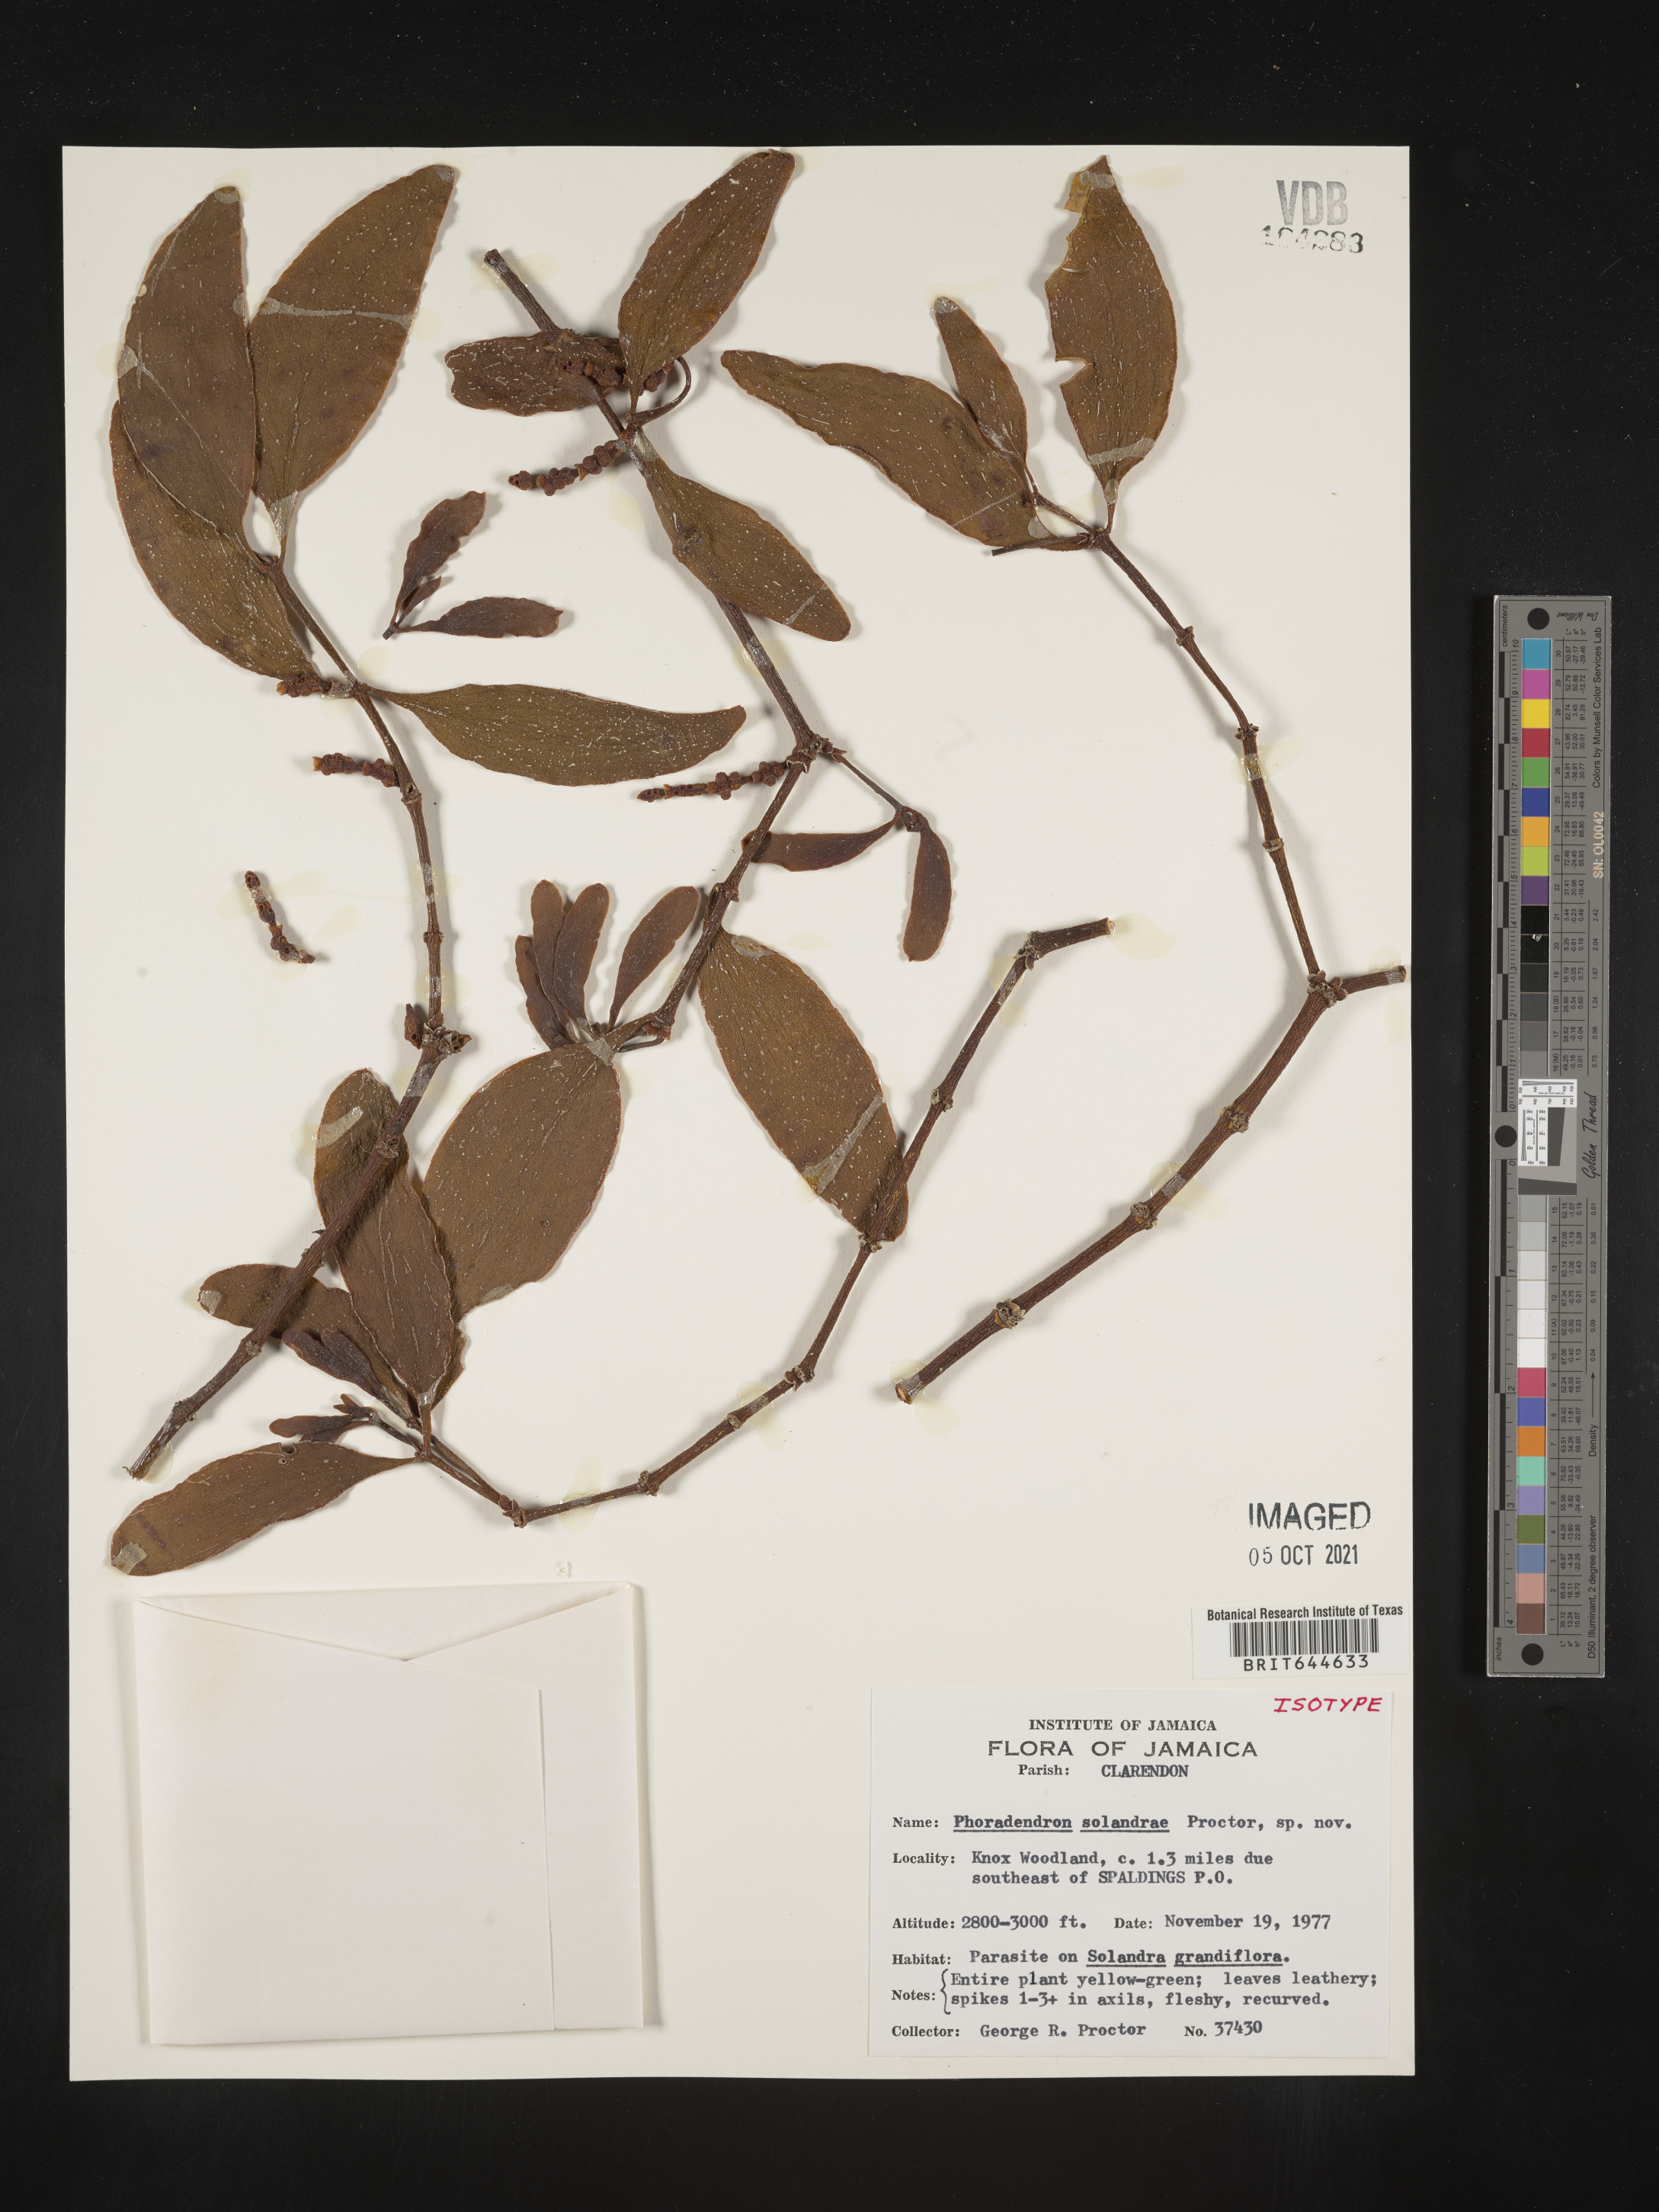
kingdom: Plantae
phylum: Tracheophyta
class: Magnoliopsida
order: Santalales
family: Viscaceae
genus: Phoradendron
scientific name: Phoradendron
